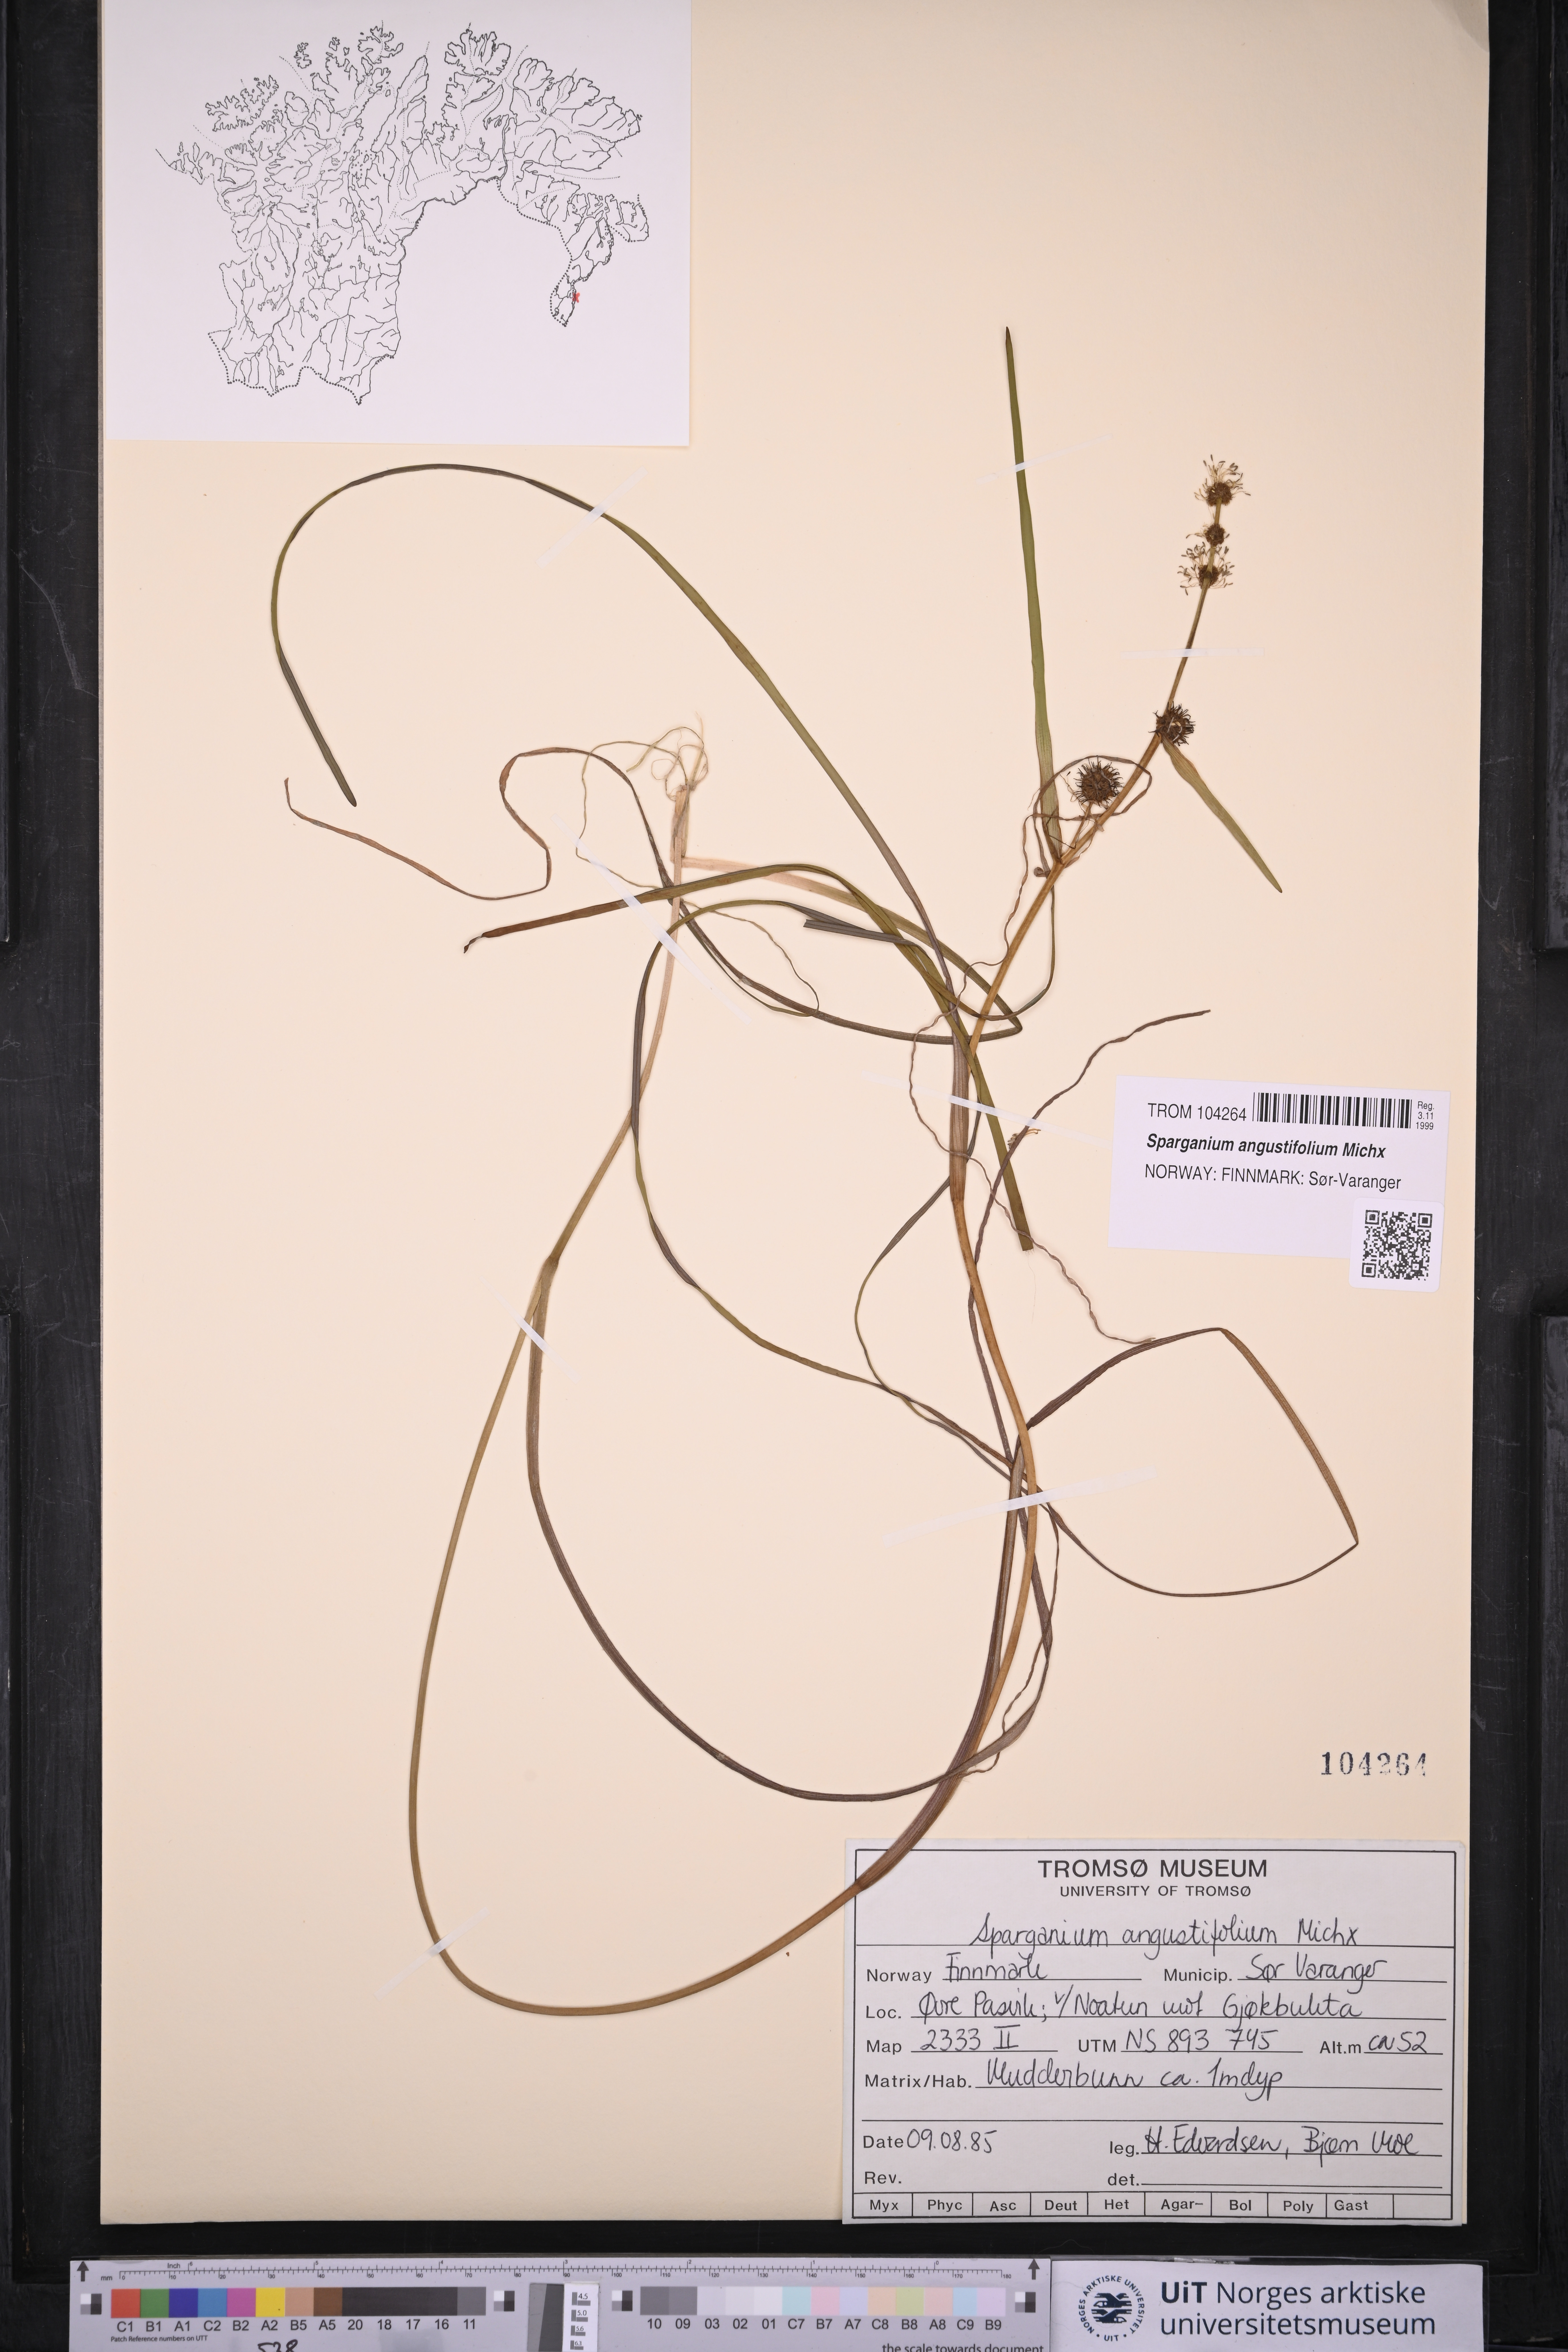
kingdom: Plantae
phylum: Tracheophyta
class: Liliopsida
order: Poales
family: Typhaceae
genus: Sparganium
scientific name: Sparganium angustifolium
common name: Floating bur-reed
